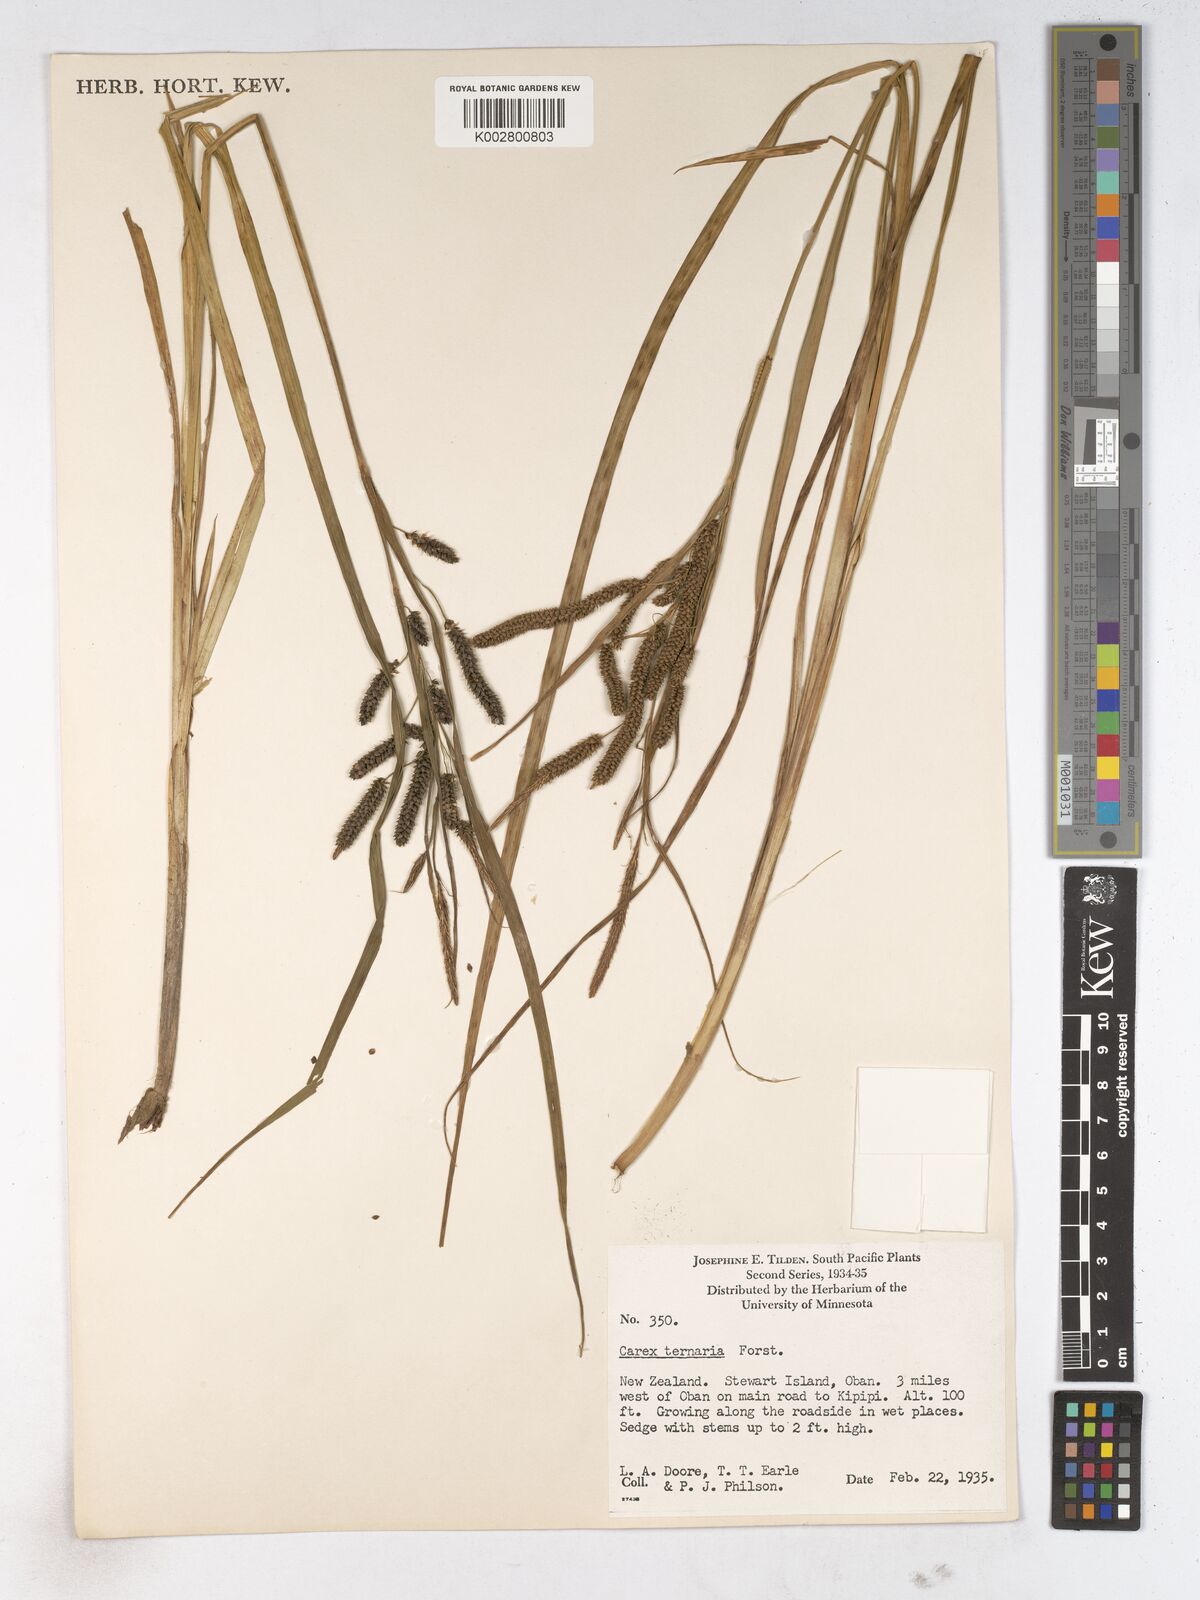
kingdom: Plantae
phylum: Tracheophyta
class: Liliopsida
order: Poales
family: Cyperaceae
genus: Carex
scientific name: Carex geminata
